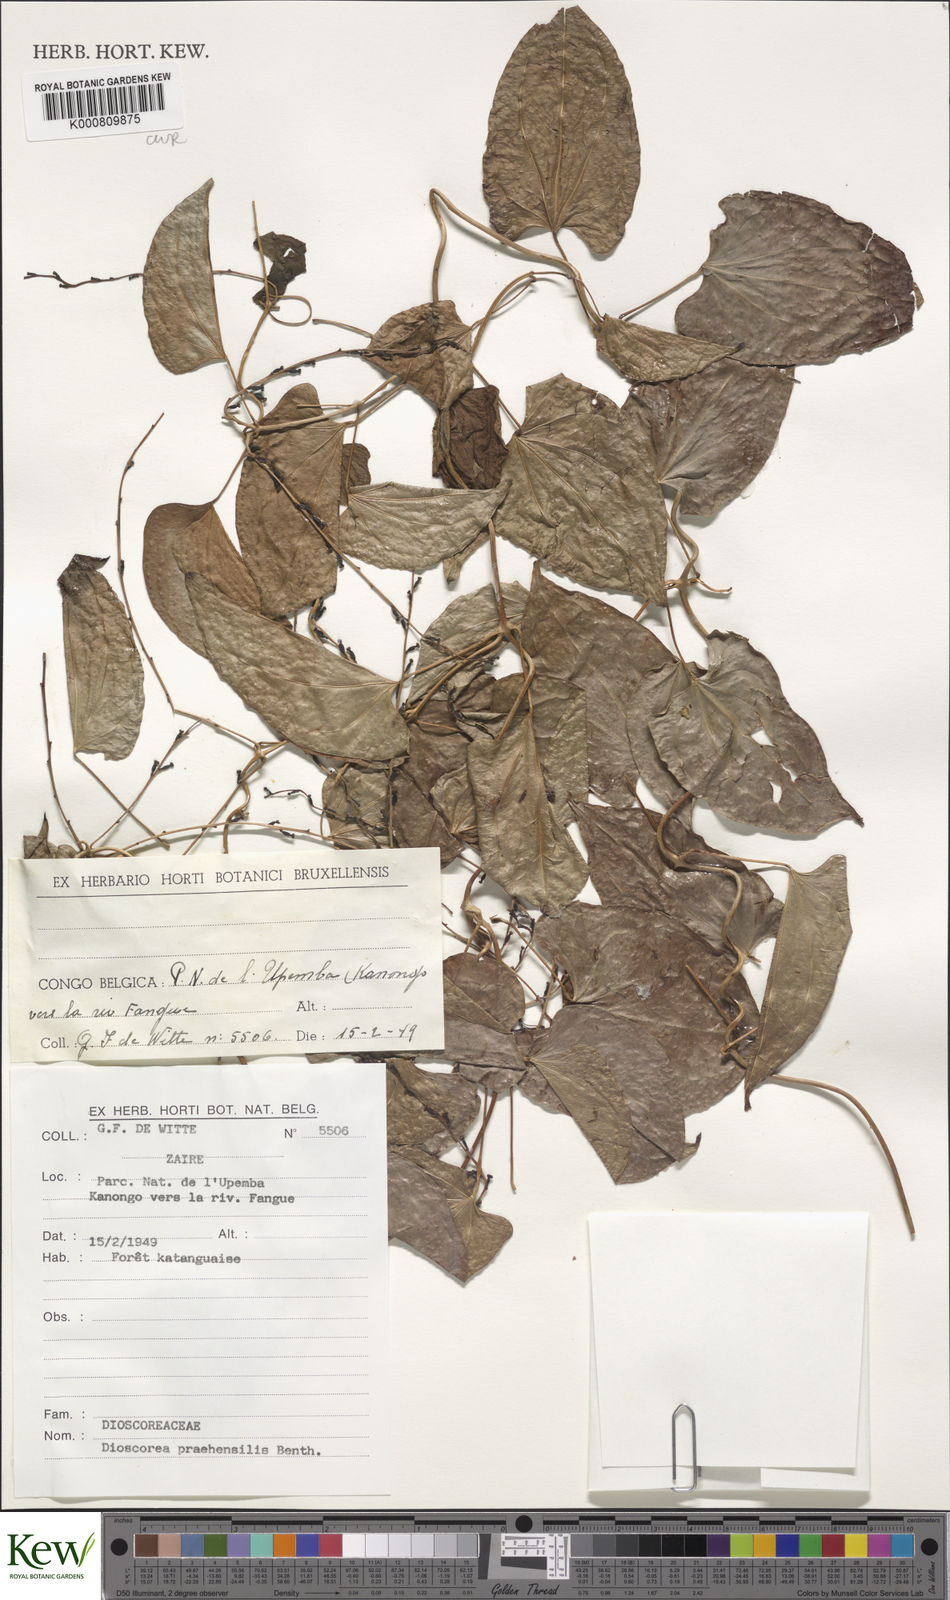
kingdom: Plantae
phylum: Tracheophyta
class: Liliopsida
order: Dioscoreales
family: Dioscoreaceae
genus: Dioscorea
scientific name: Dioscorea praehensilis
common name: Bush yam
